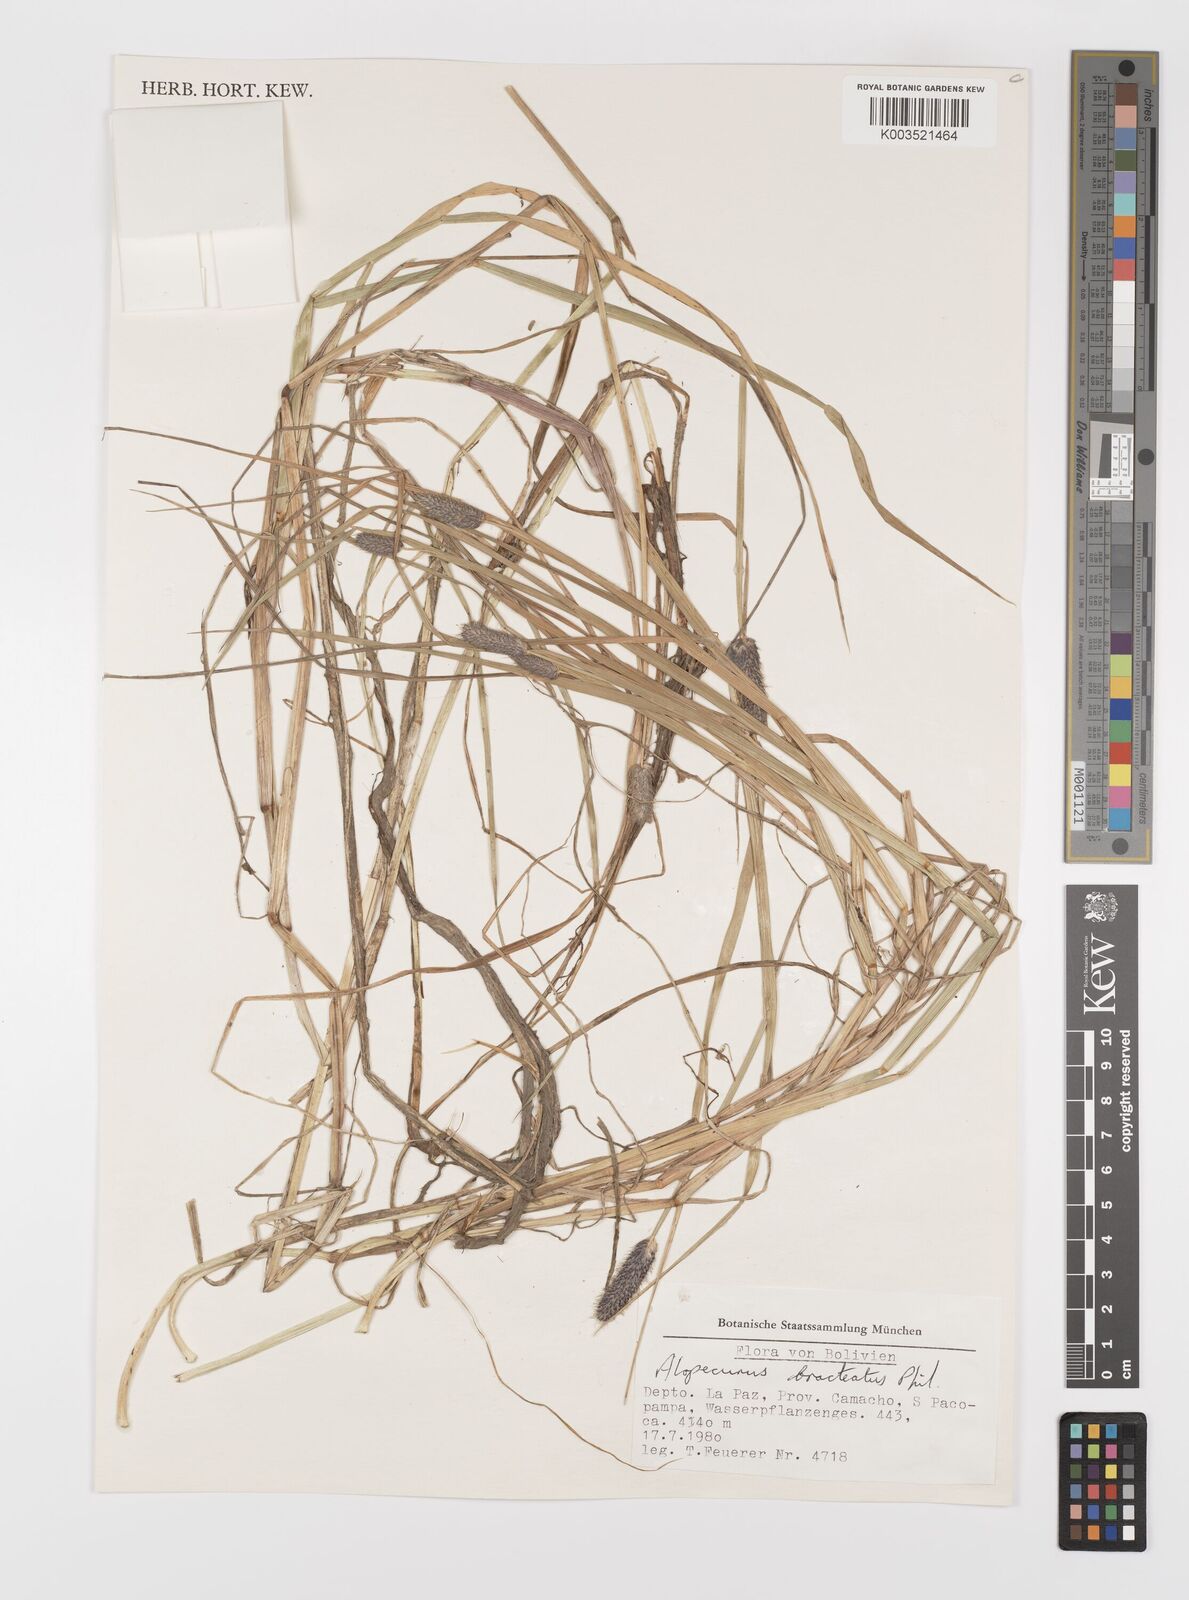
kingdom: Plantae
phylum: Tracheophyta
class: Liliopsida
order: Poales
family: Poaceae
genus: Alopecurus
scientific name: Alopecurus magellanicus
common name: Alpine foxtail
